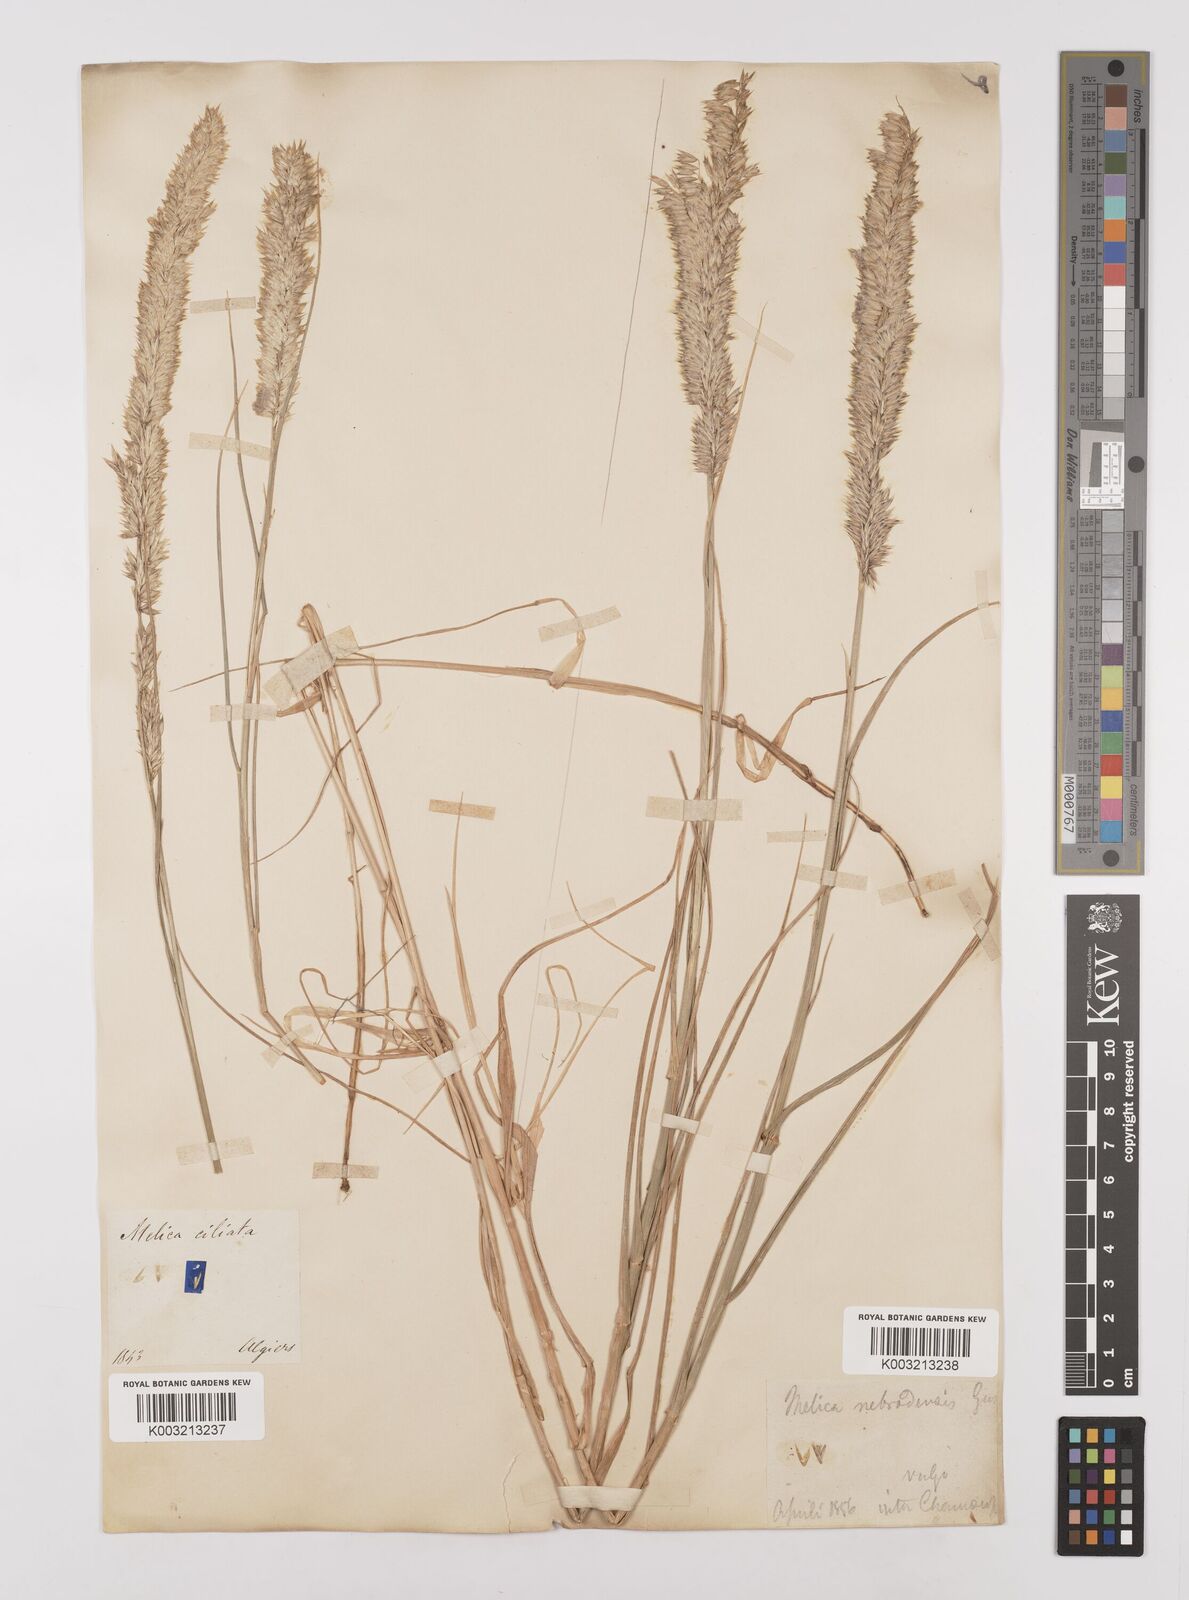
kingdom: Plantae
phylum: Tracheophyta
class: Liliopsida
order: Poales
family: Poaceae
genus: Melica
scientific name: Melica ciliata
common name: Hairy melicgrass
